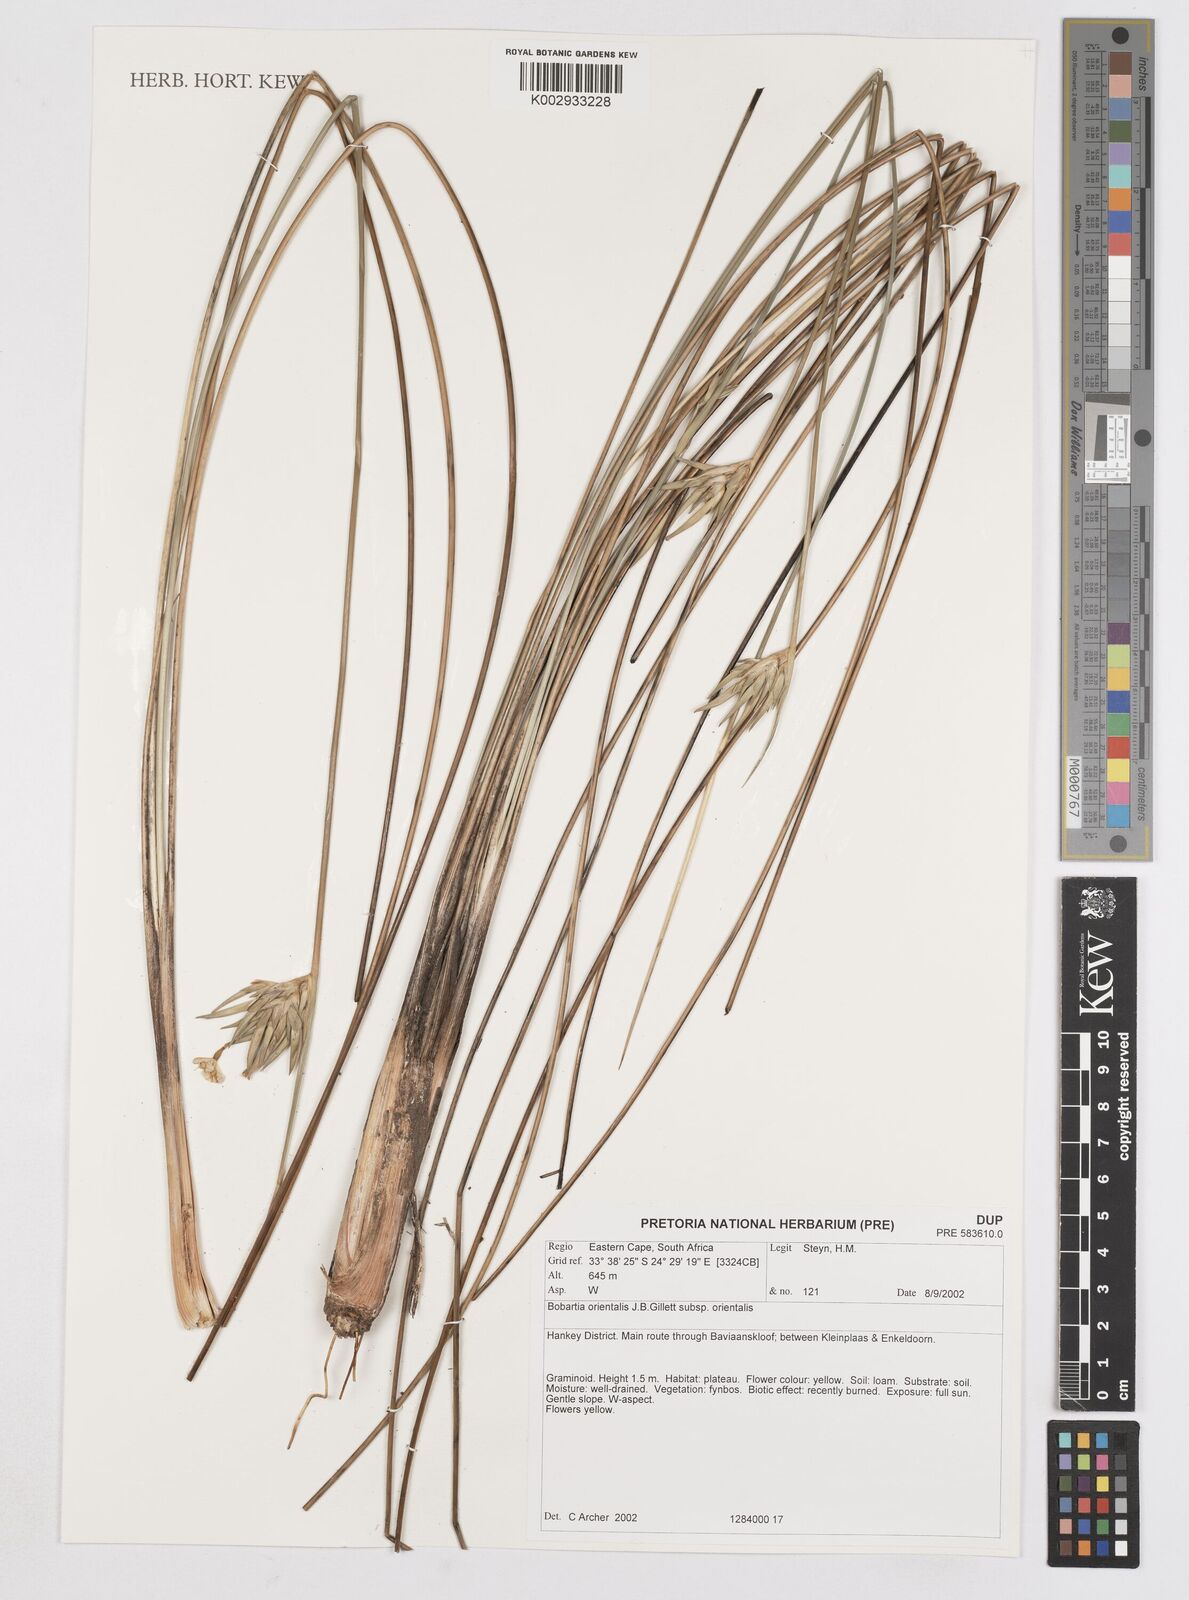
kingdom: Plantae
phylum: Tracheophyta
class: Liliopsida
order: Asparagales
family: Iridaceae
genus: Bobartia
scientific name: Bobartia orientalis
